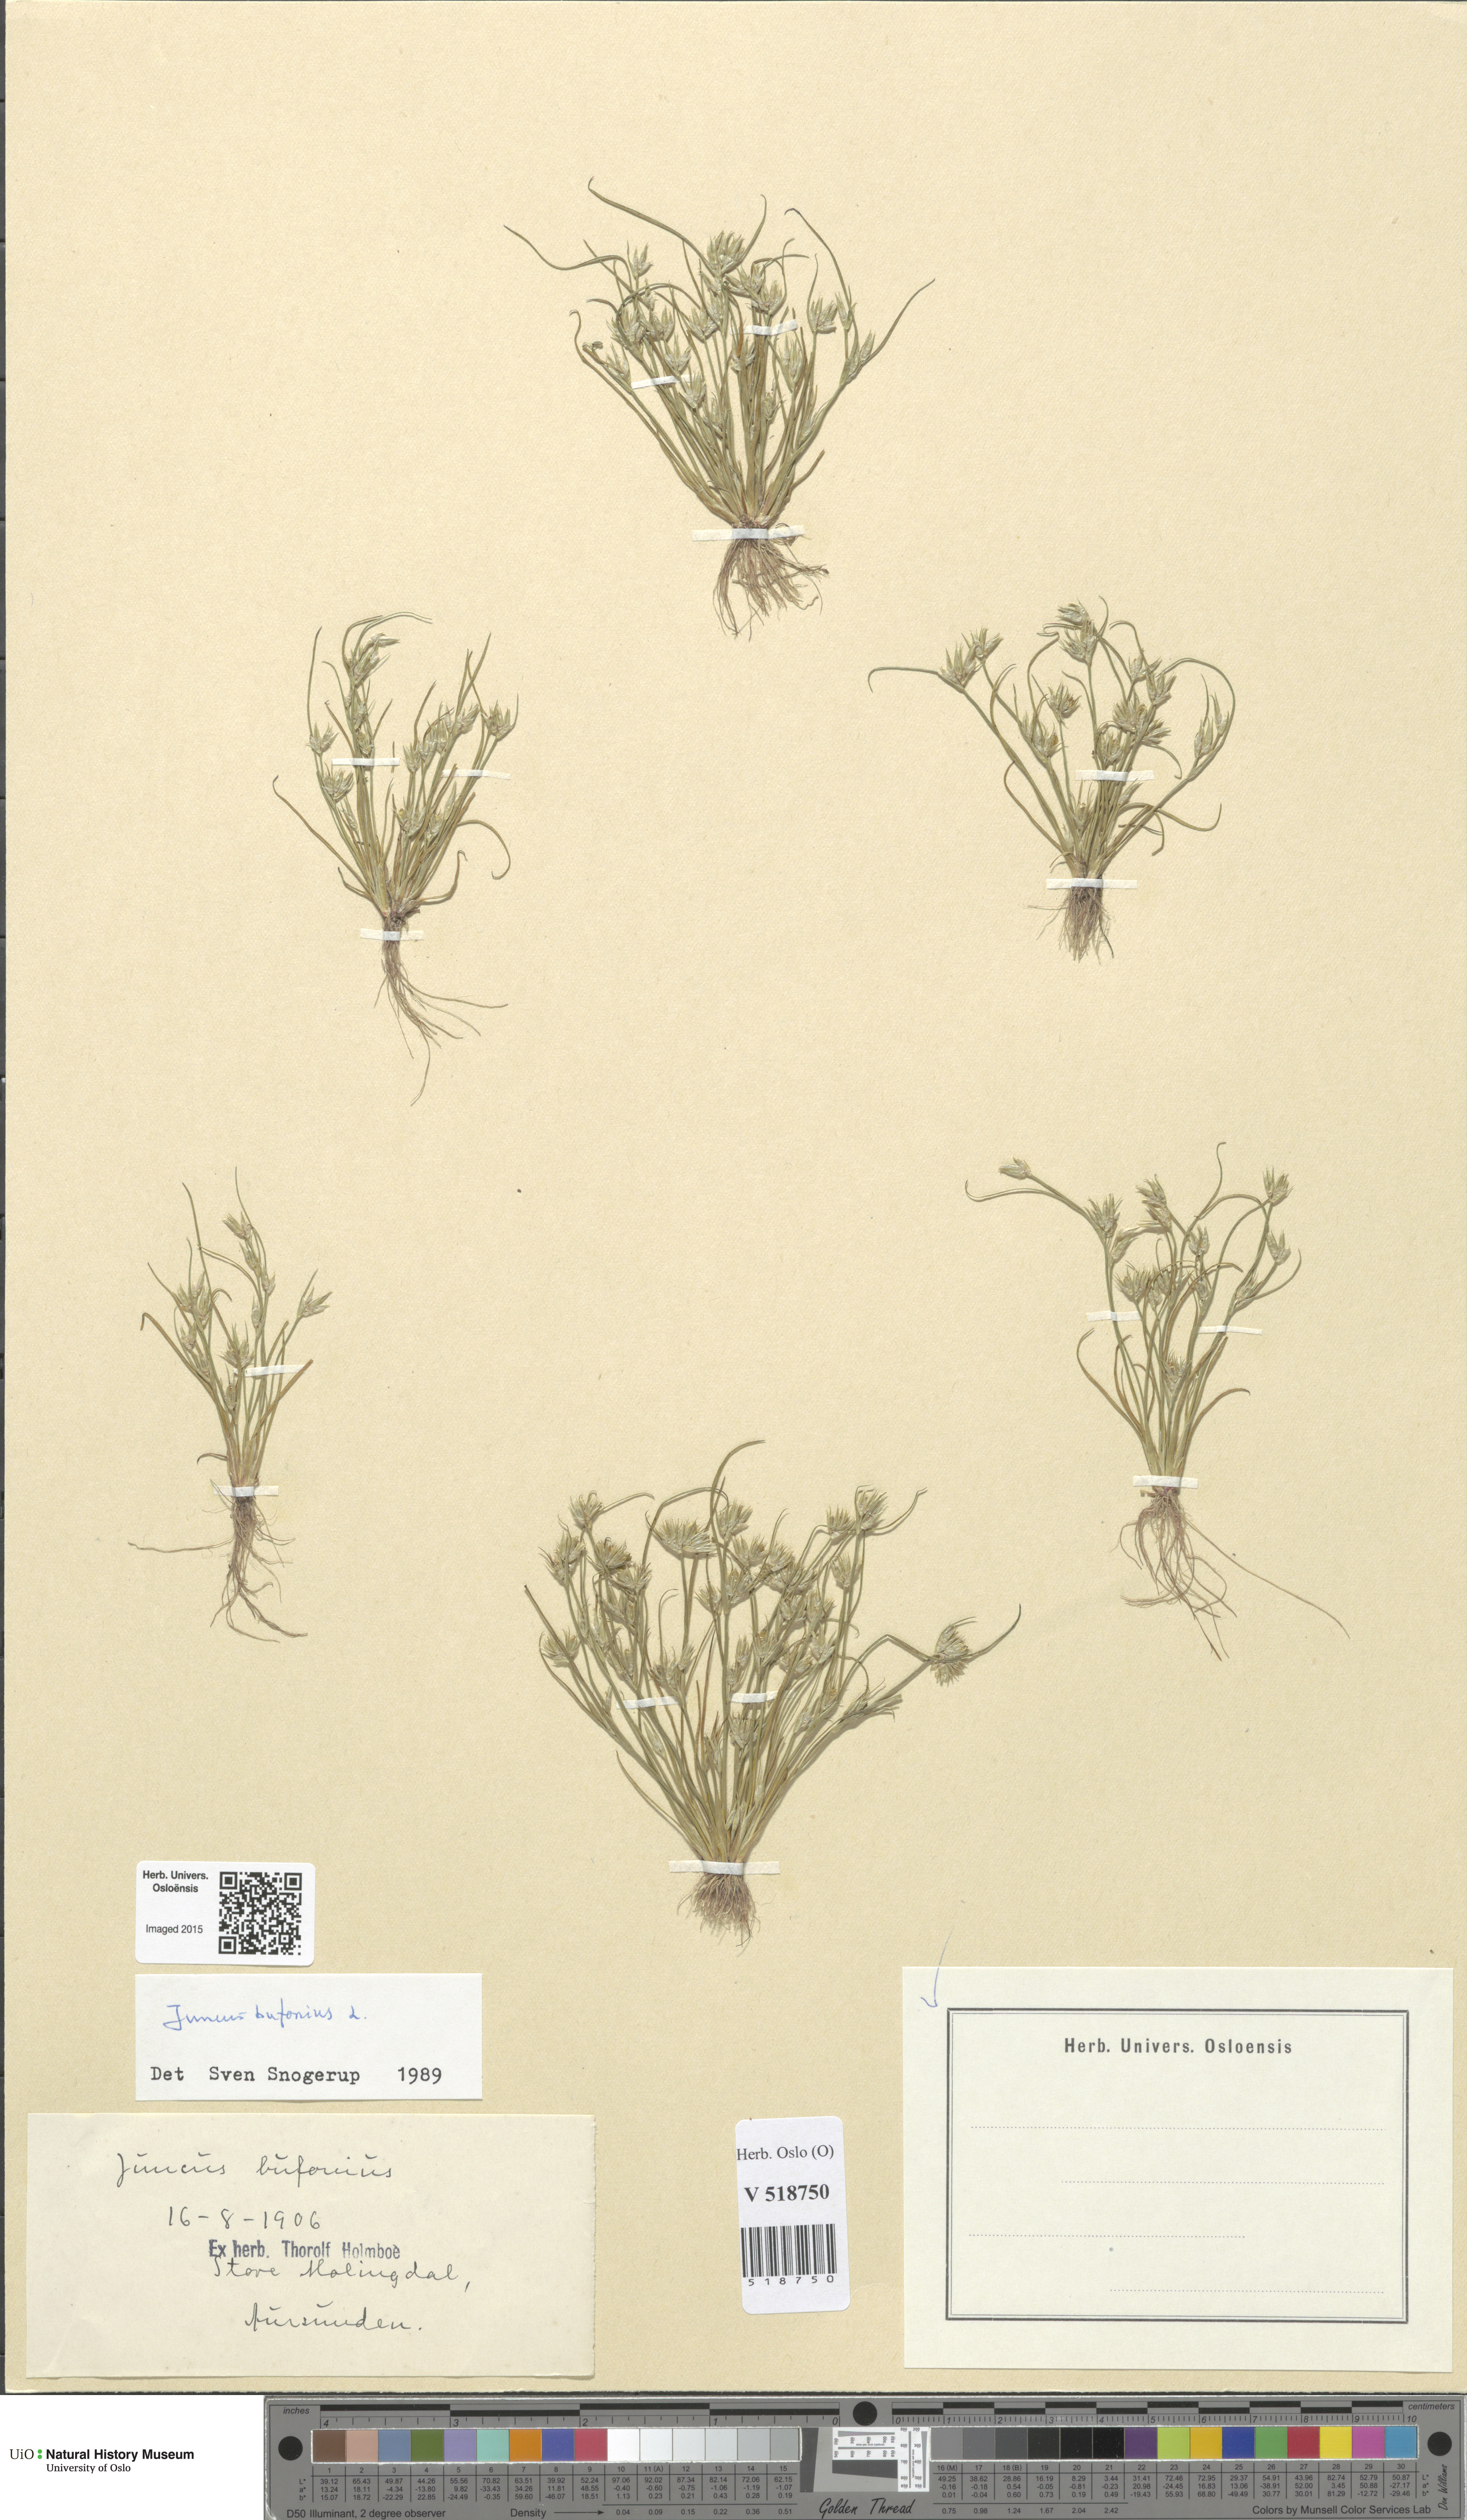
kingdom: Plantae
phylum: Tracheophyta
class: Liliopsida
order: Poales
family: Juncaceae
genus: Juncus
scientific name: Juncus bufonius
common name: Toad rush
